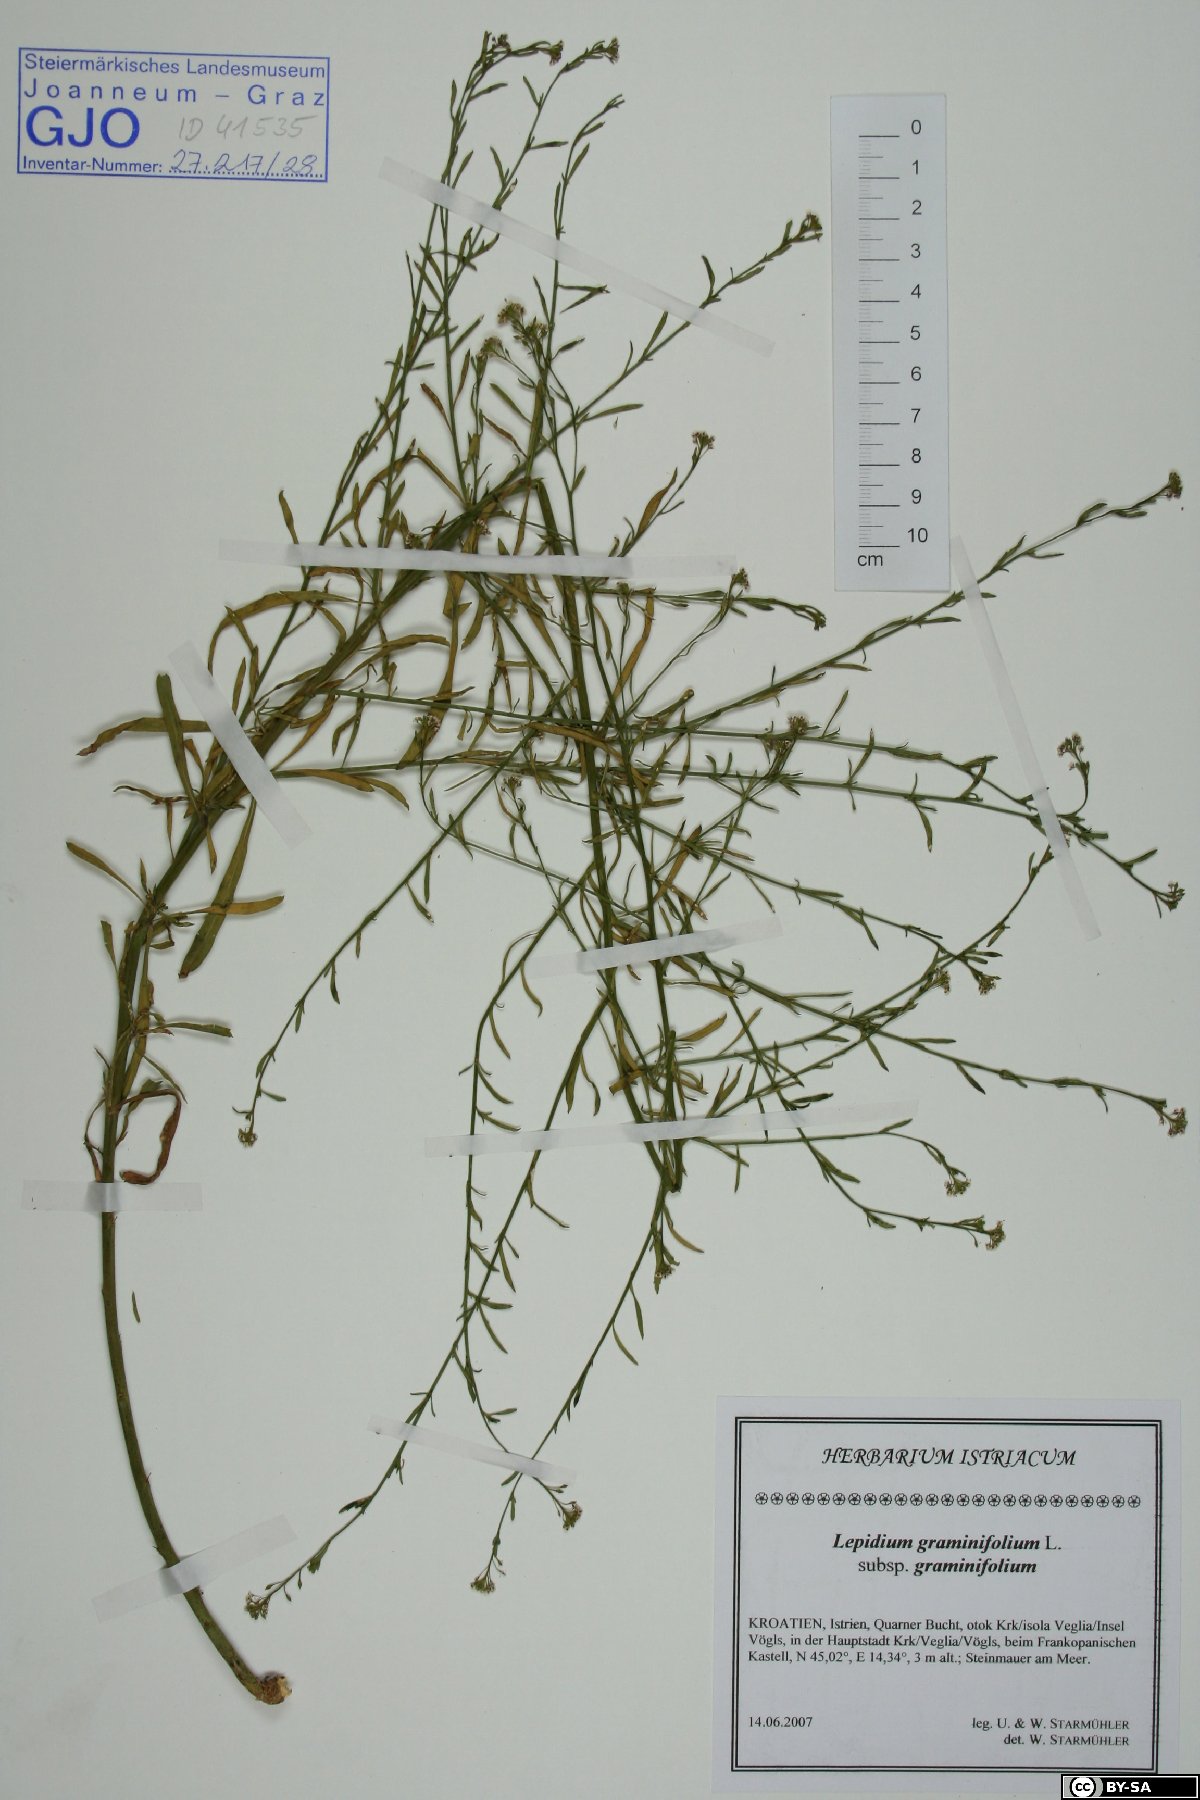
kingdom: Plantae
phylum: Tracheophyta
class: Magnoliopsida
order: Brassicales
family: Brassicaceae
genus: Lepidium
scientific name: Lepidium graminifolium
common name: Tall pepperwort
